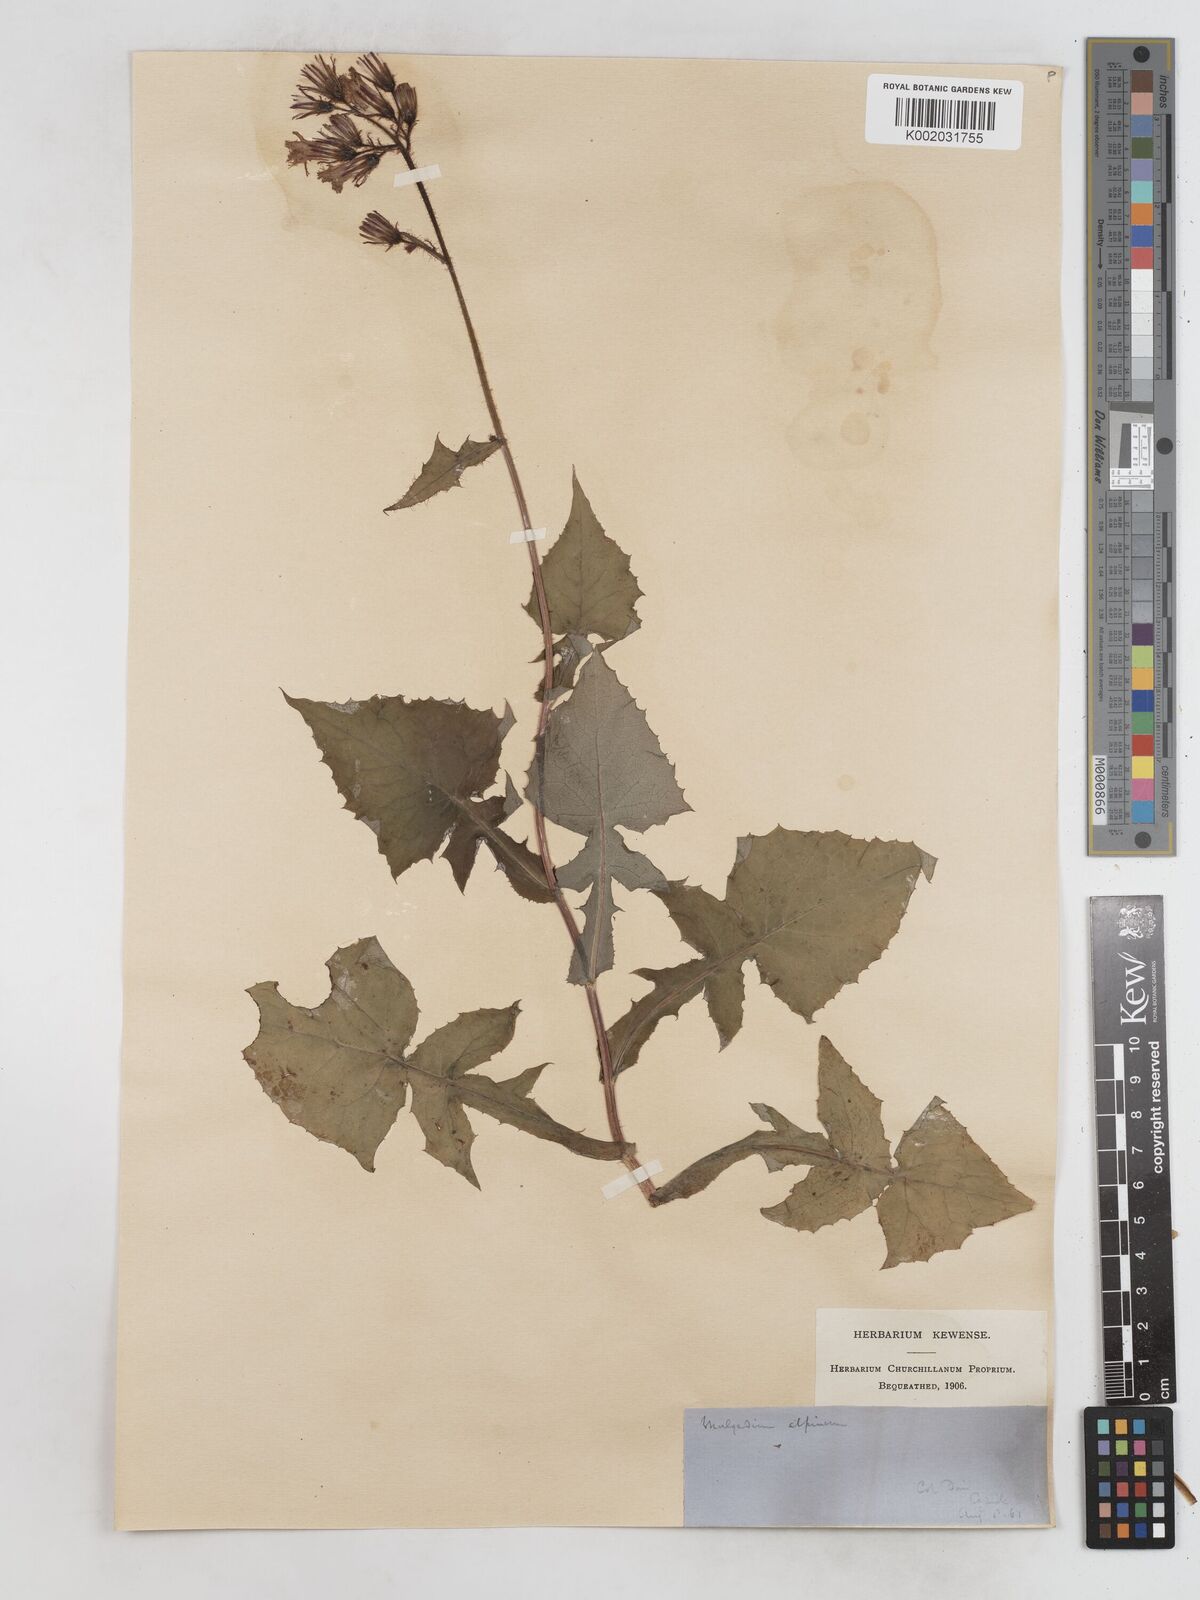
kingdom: Plantae
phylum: Tracheophyta
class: Magnoliopsida
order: Asterales
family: Asteraceae
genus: Cicerbita
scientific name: Cicerbita alpina
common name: Alpine blue-sow-thistle
